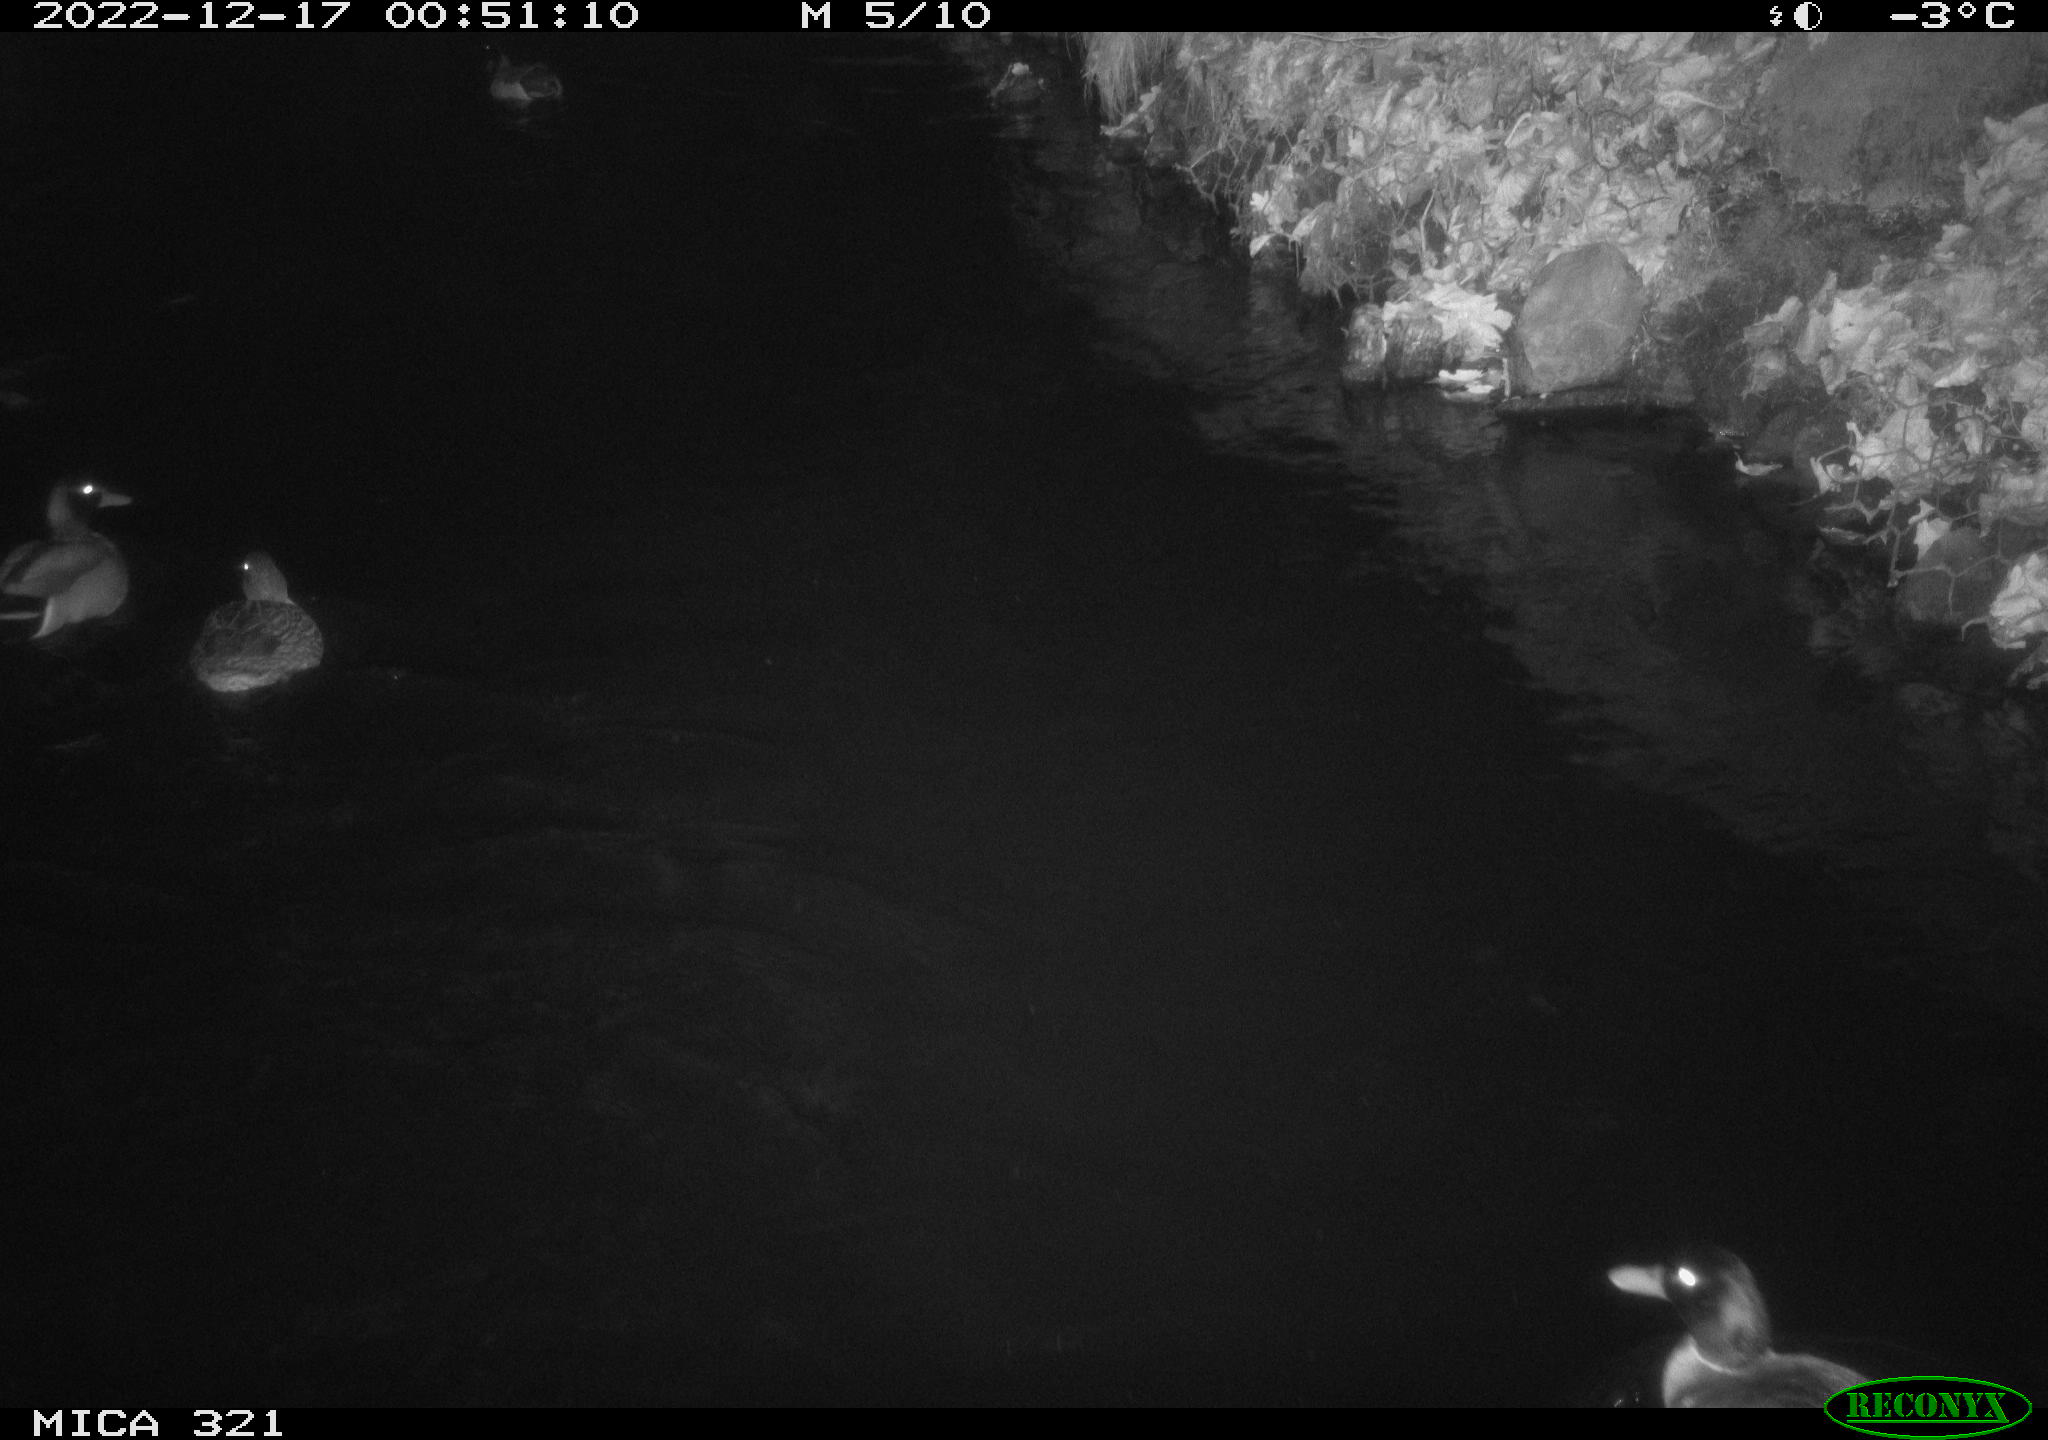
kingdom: Animalia
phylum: Chordata
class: Aves
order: Anseriformes
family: Anatidae
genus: Anas
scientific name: Anas
